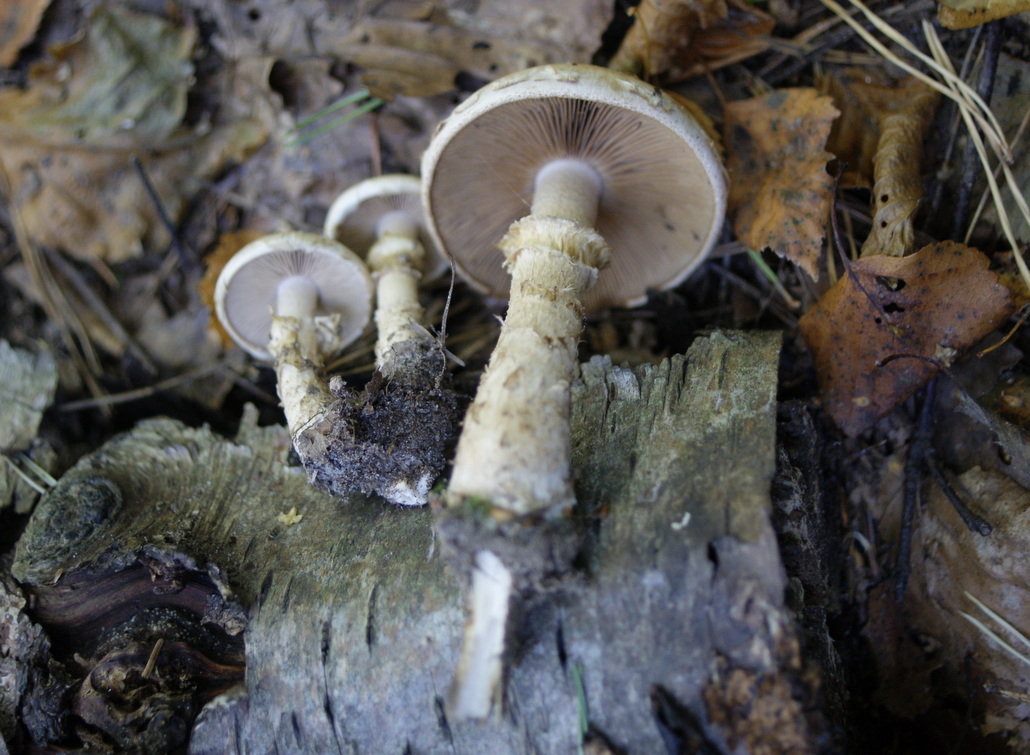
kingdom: Fungi
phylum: Basidiomycota
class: Agaricomycetes
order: Agaricales
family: Hymenogastraceae
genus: Hebeloma
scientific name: Hebeloma radicosum
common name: pælerods-tåreblad
